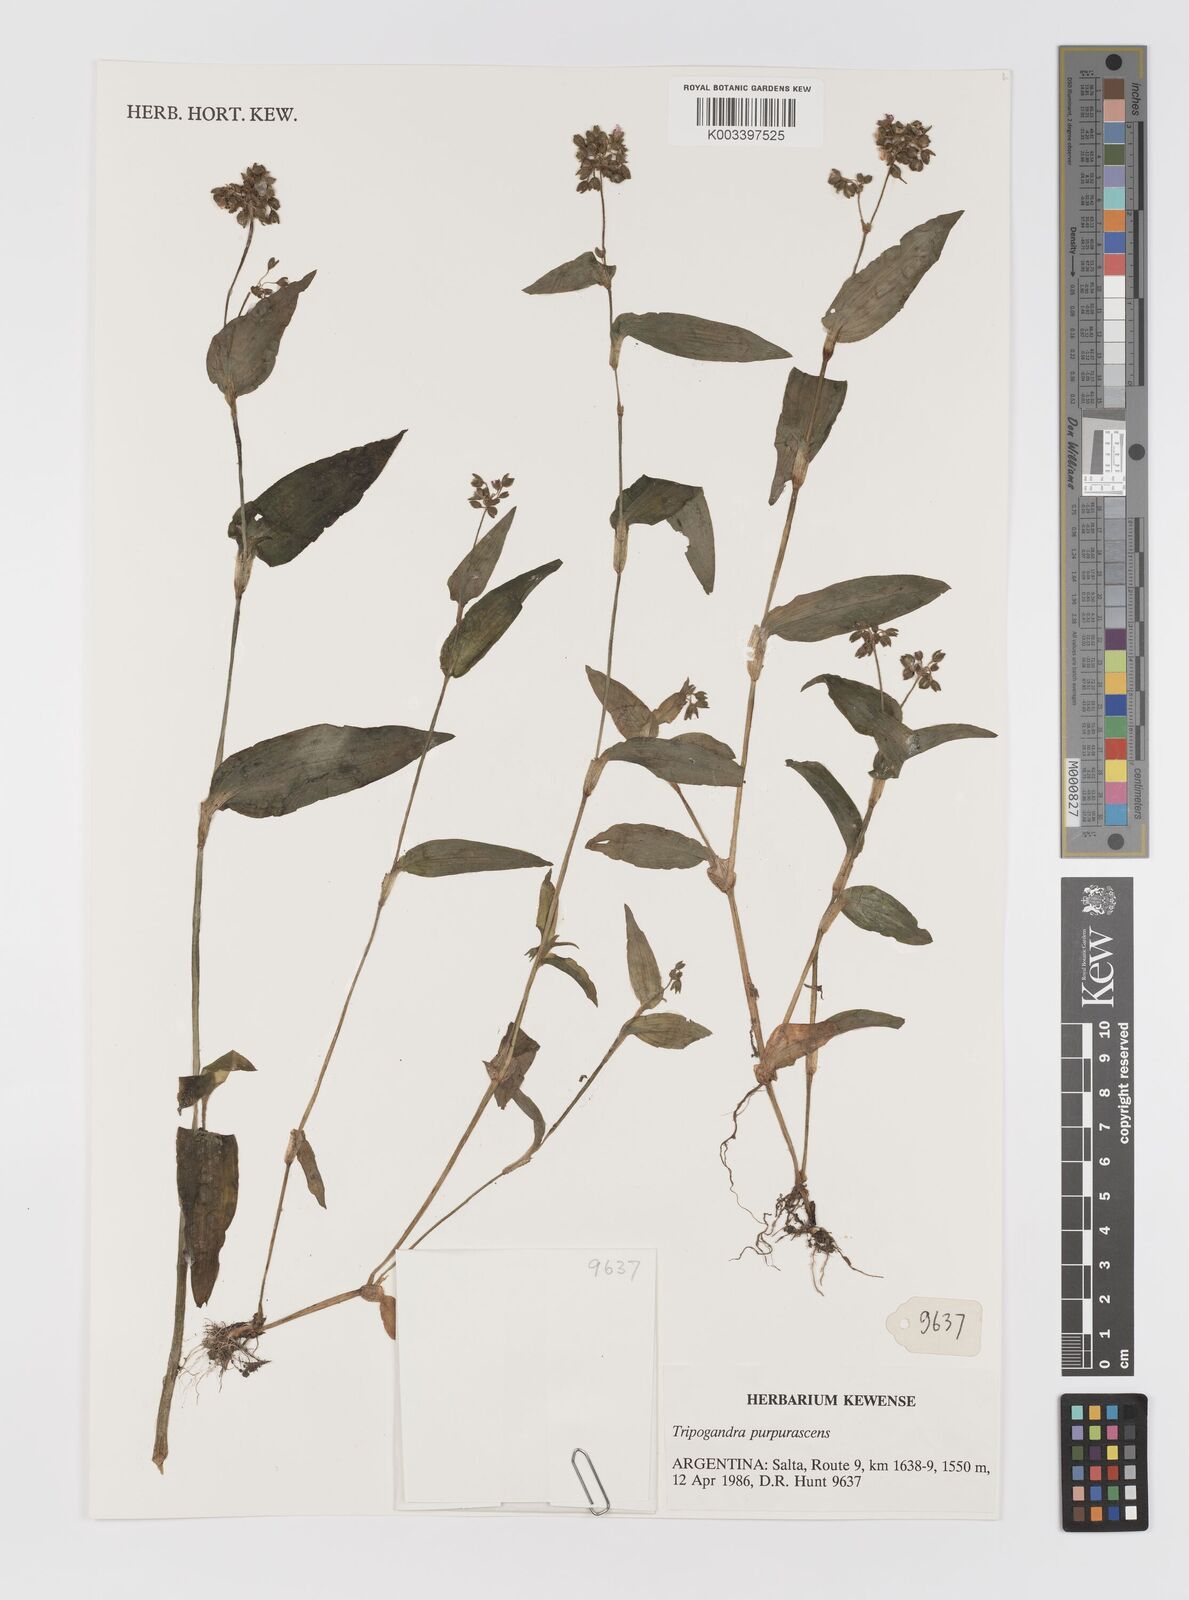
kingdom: Plantae
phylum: Tracheophyta
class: Liliopsida
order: Commelinales
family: Commelinaceae
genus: Callisia
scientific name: Callisia purpurascens
